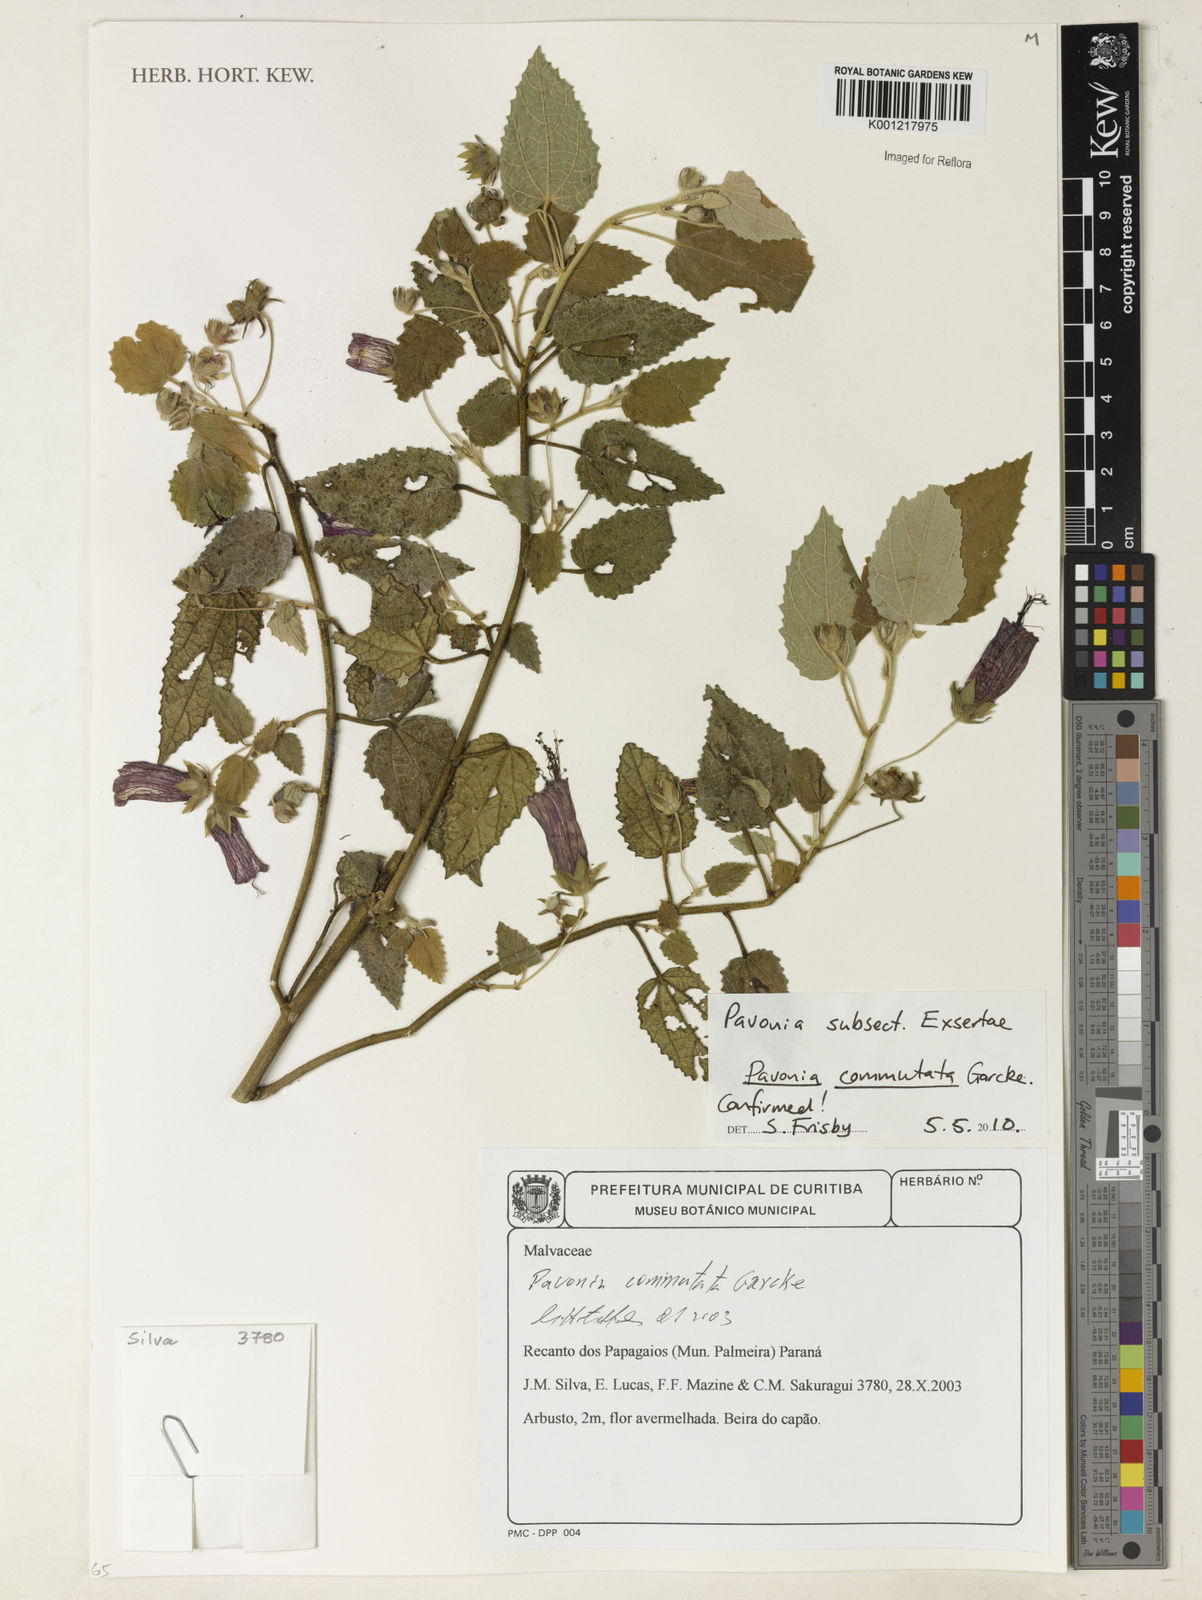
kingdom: Plantae
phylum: Tracheophyta
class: Magnoliopsida
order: Malvales
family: Malvaceae
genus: Pavonia
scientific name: Pavonia commutata
